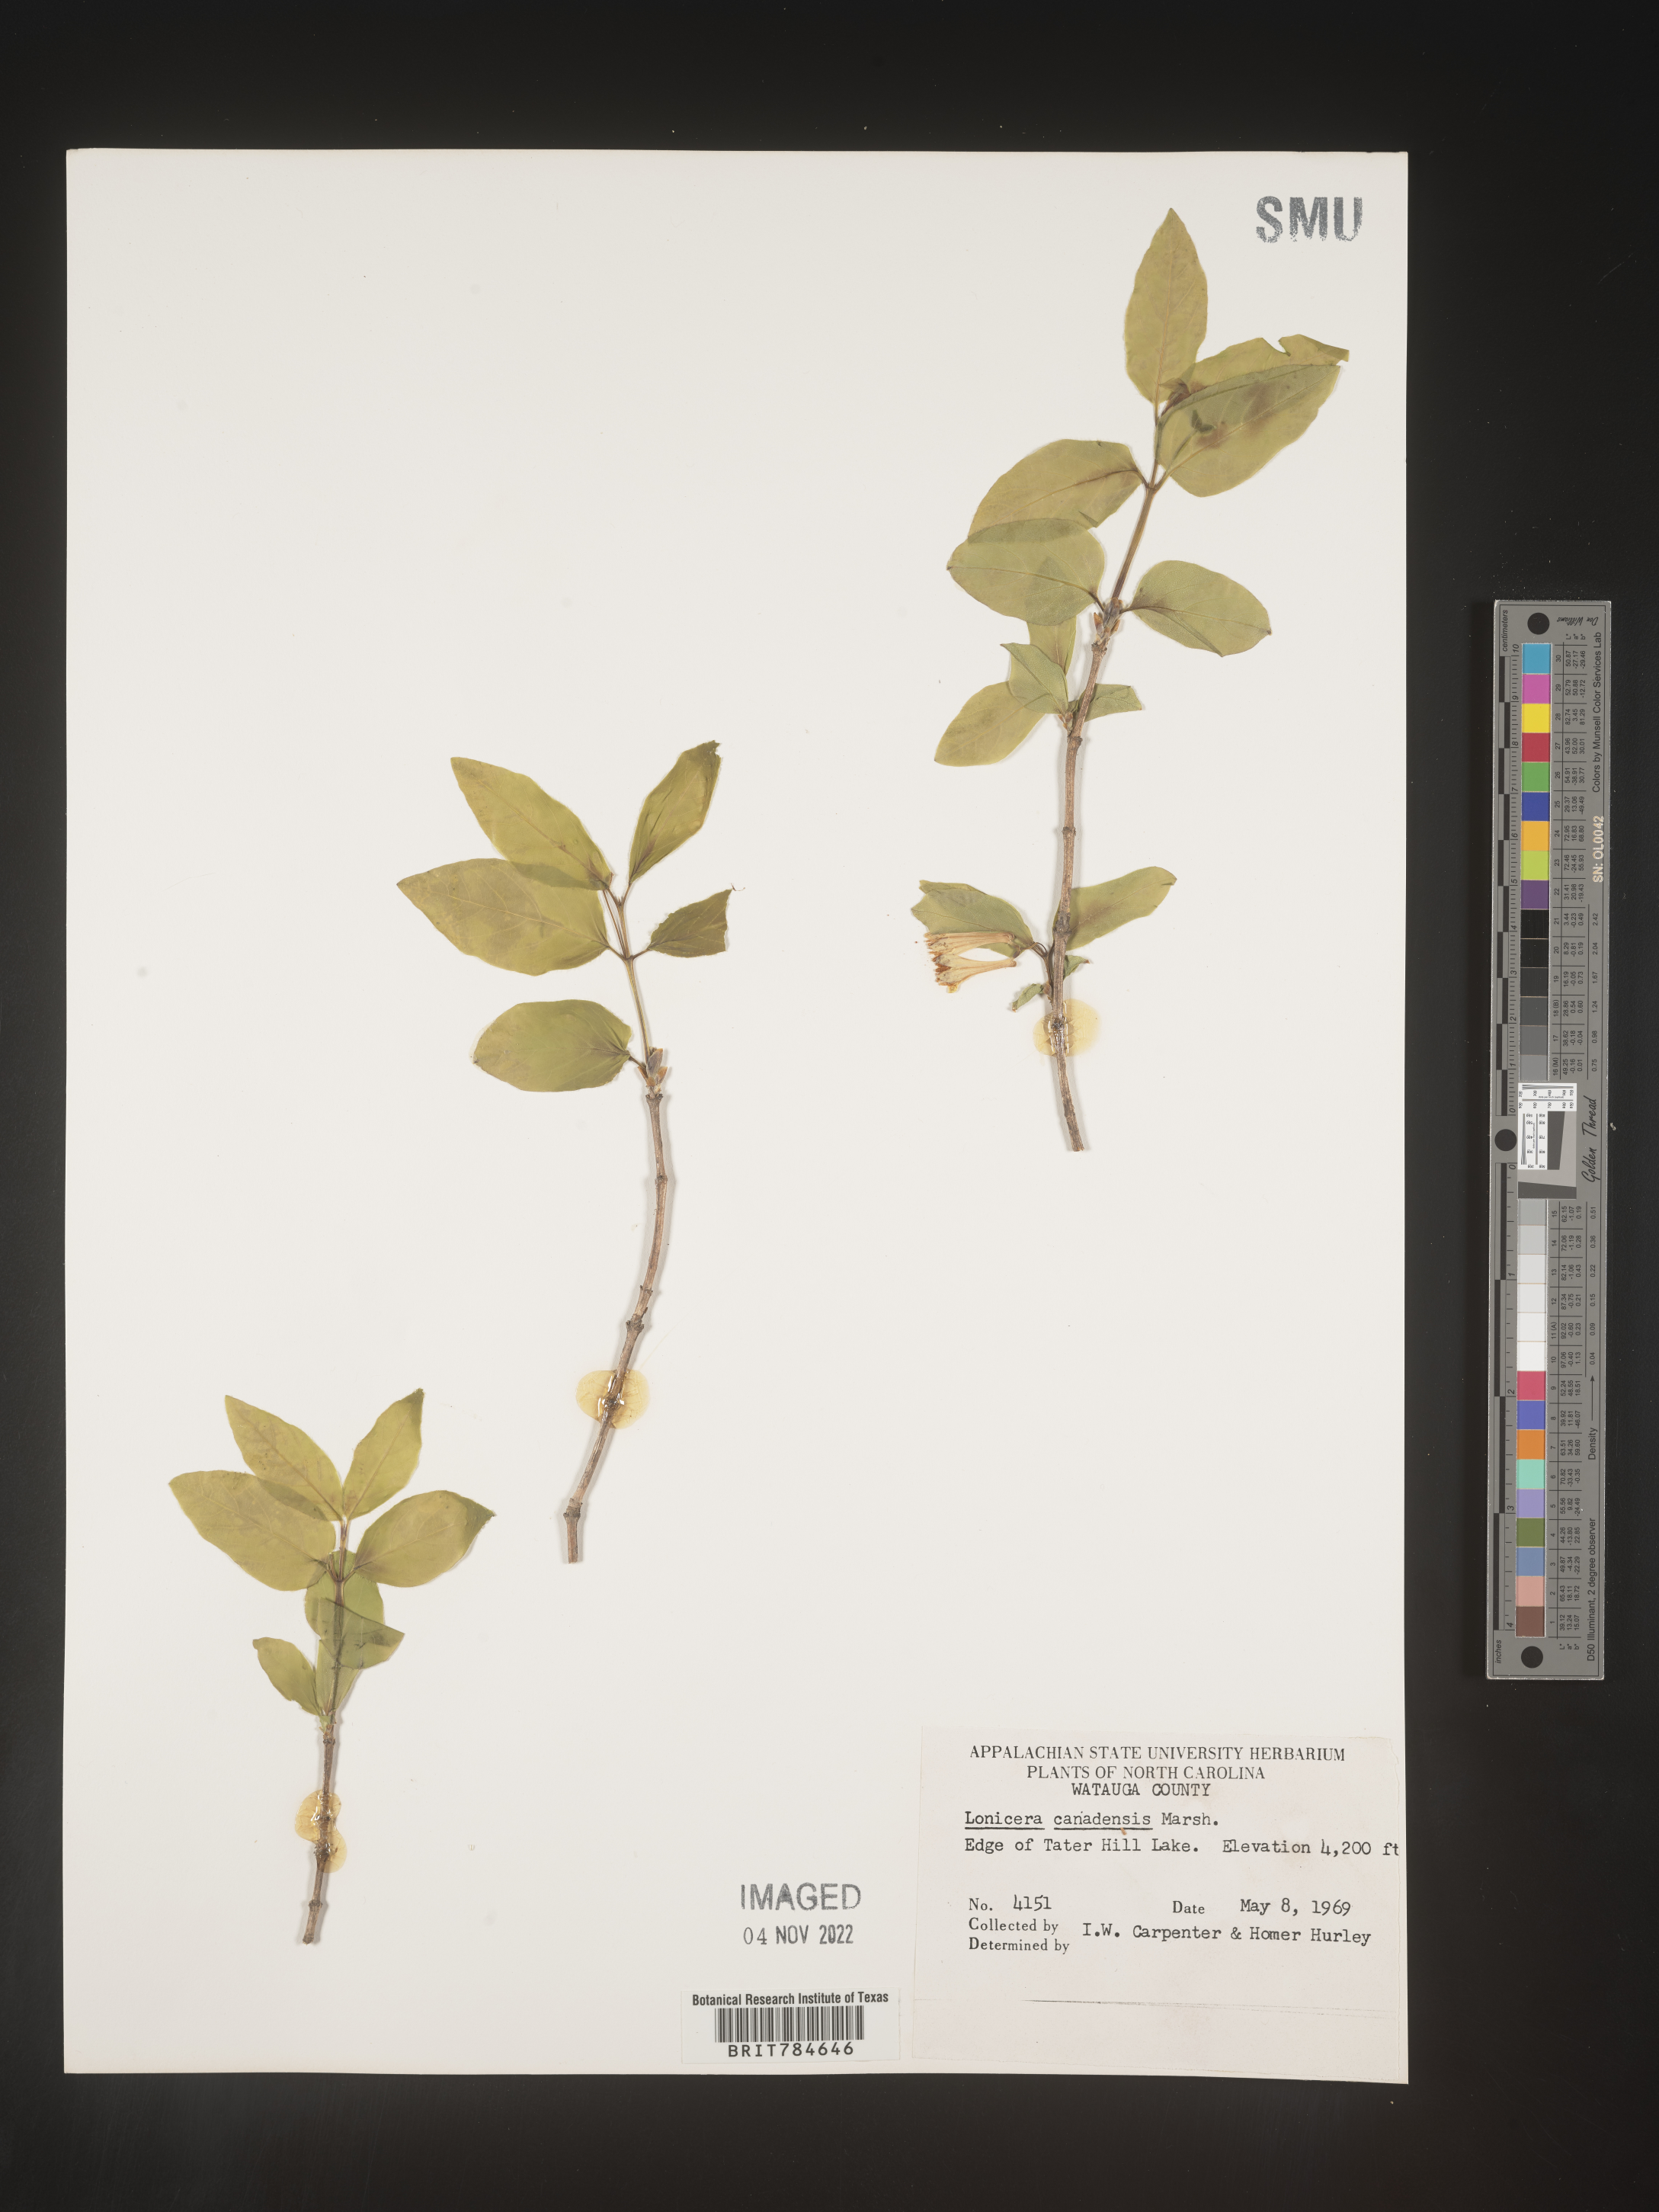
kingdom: Plantae
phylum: Tracheophyta
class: Magnoliopsida
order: Dipsacales
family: Caprifoliaceae
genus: Lonicera
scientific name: Lonicera
